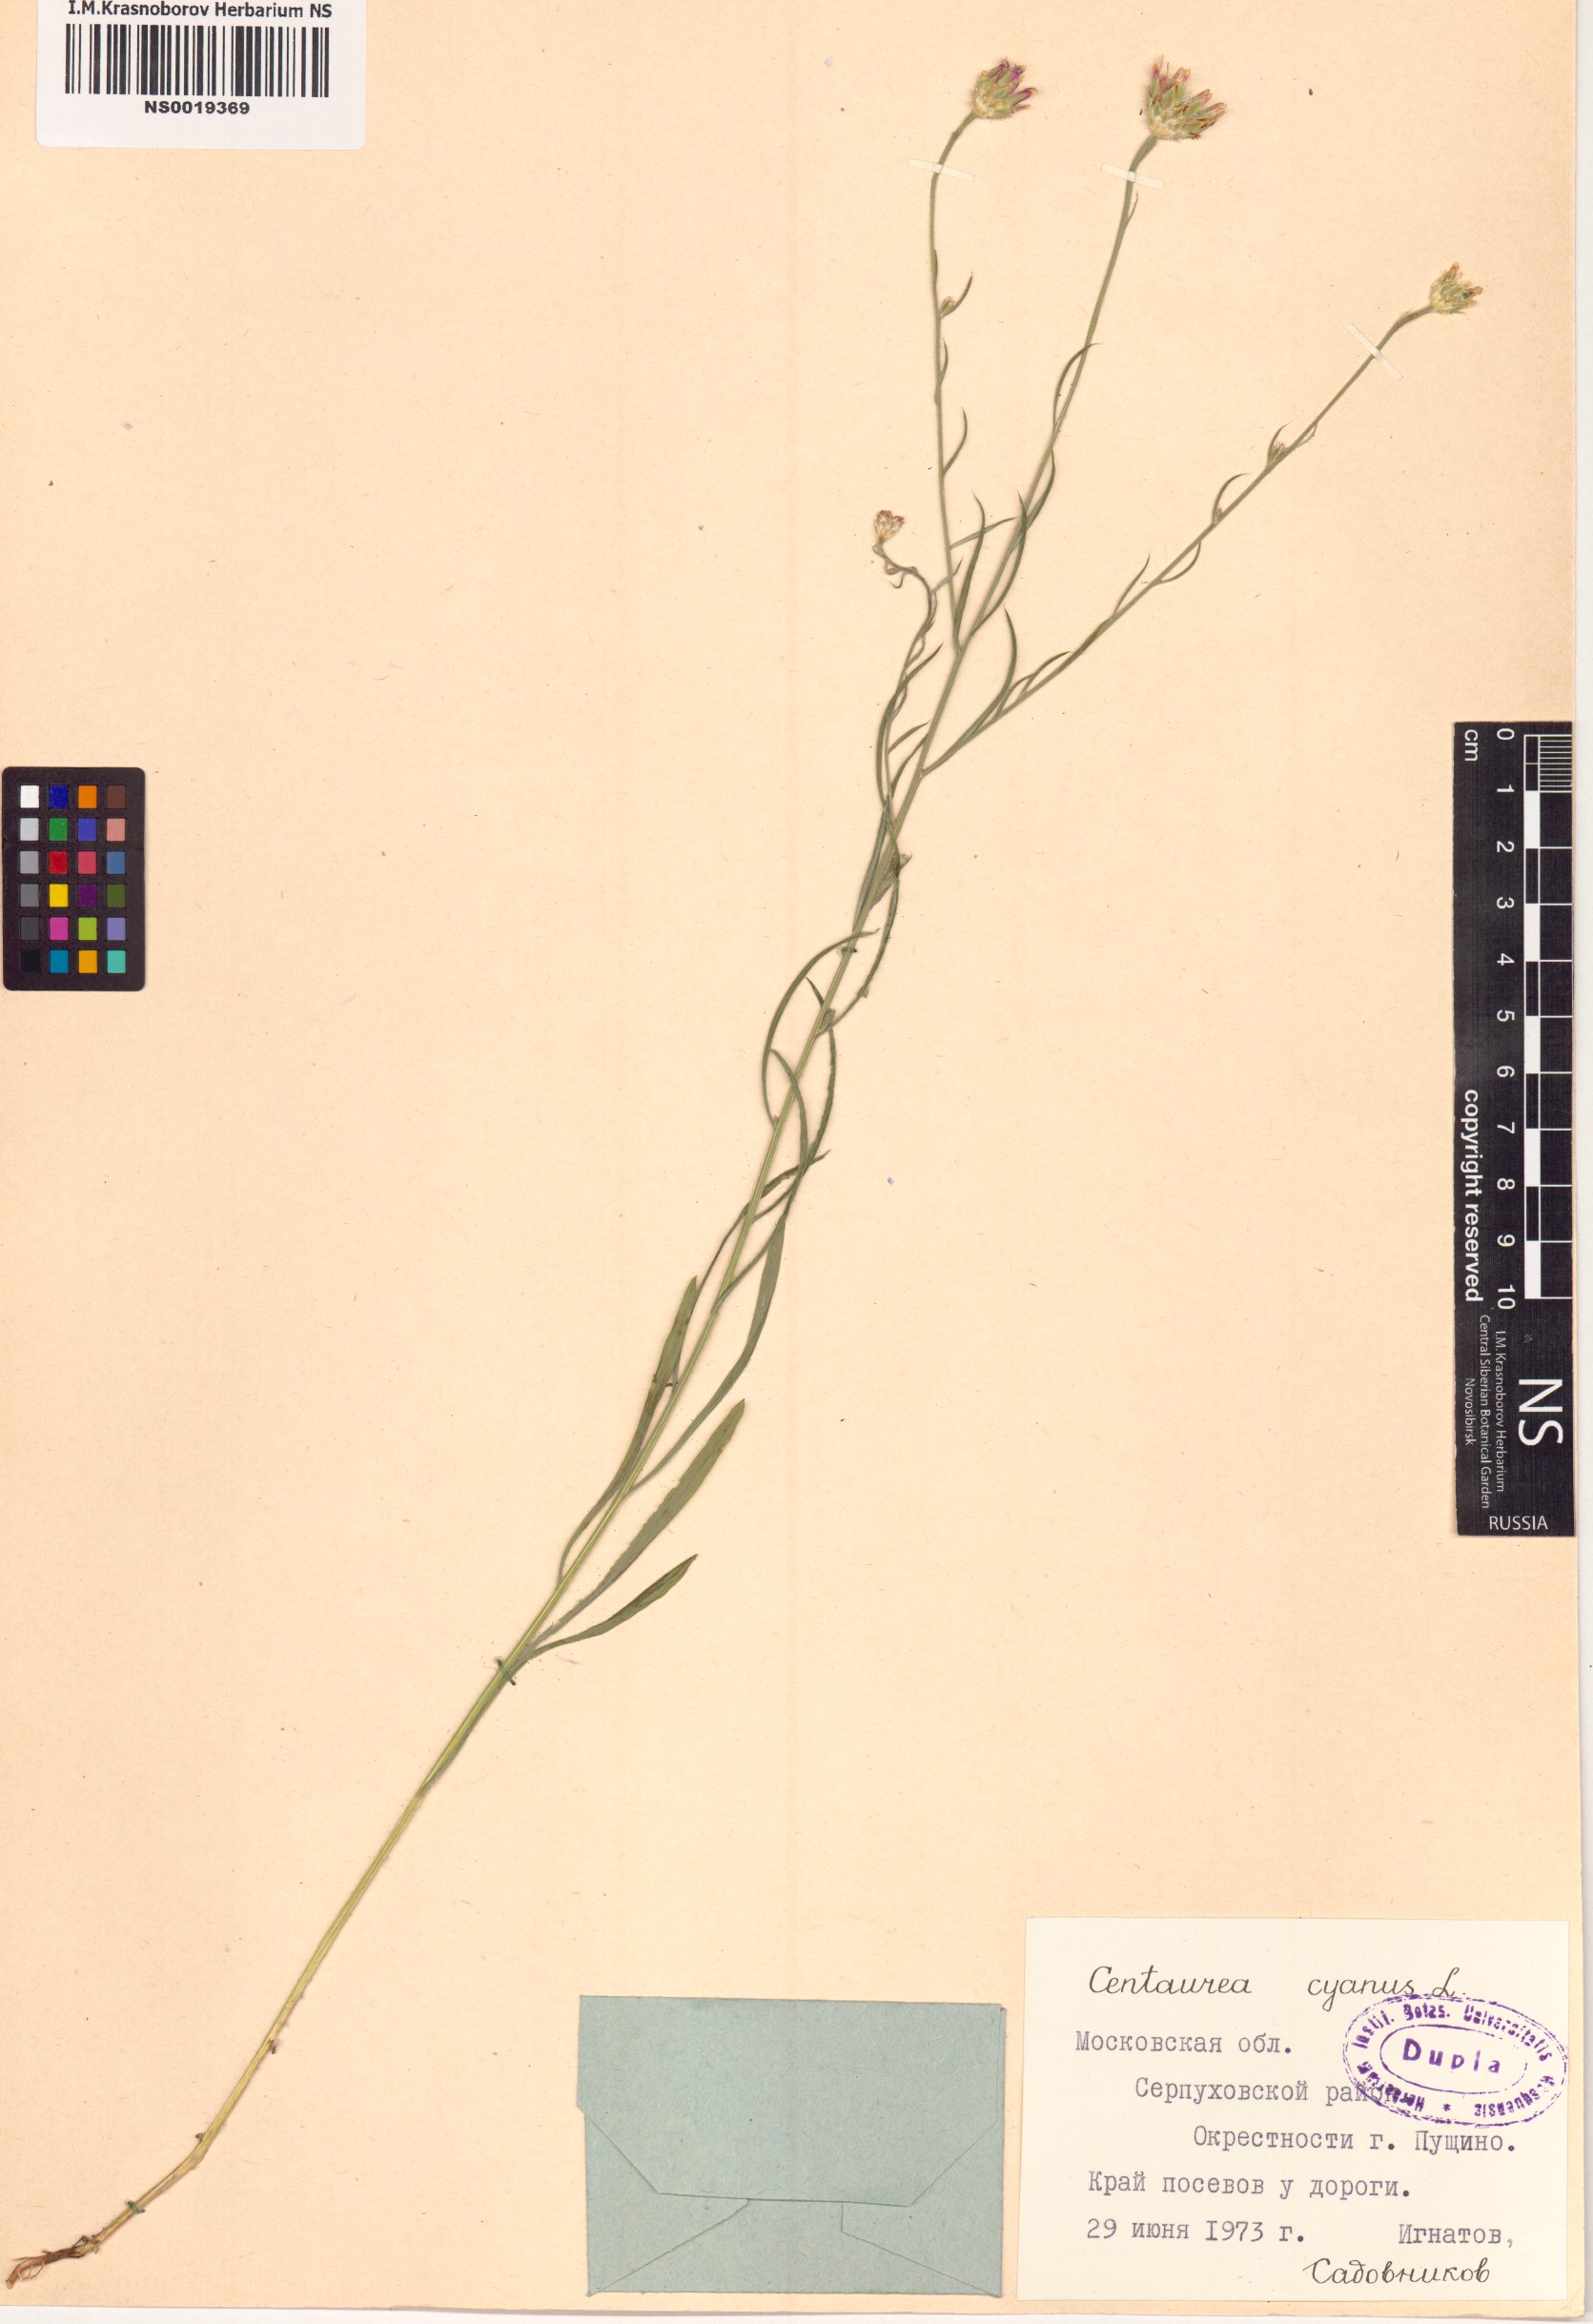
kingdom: Plantae
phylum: Tracheophyta
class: Magnoliopsida
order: Asterales
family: Asteraceae
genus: Centaurea
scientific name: Centaurea cyanus
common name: Cornflower
